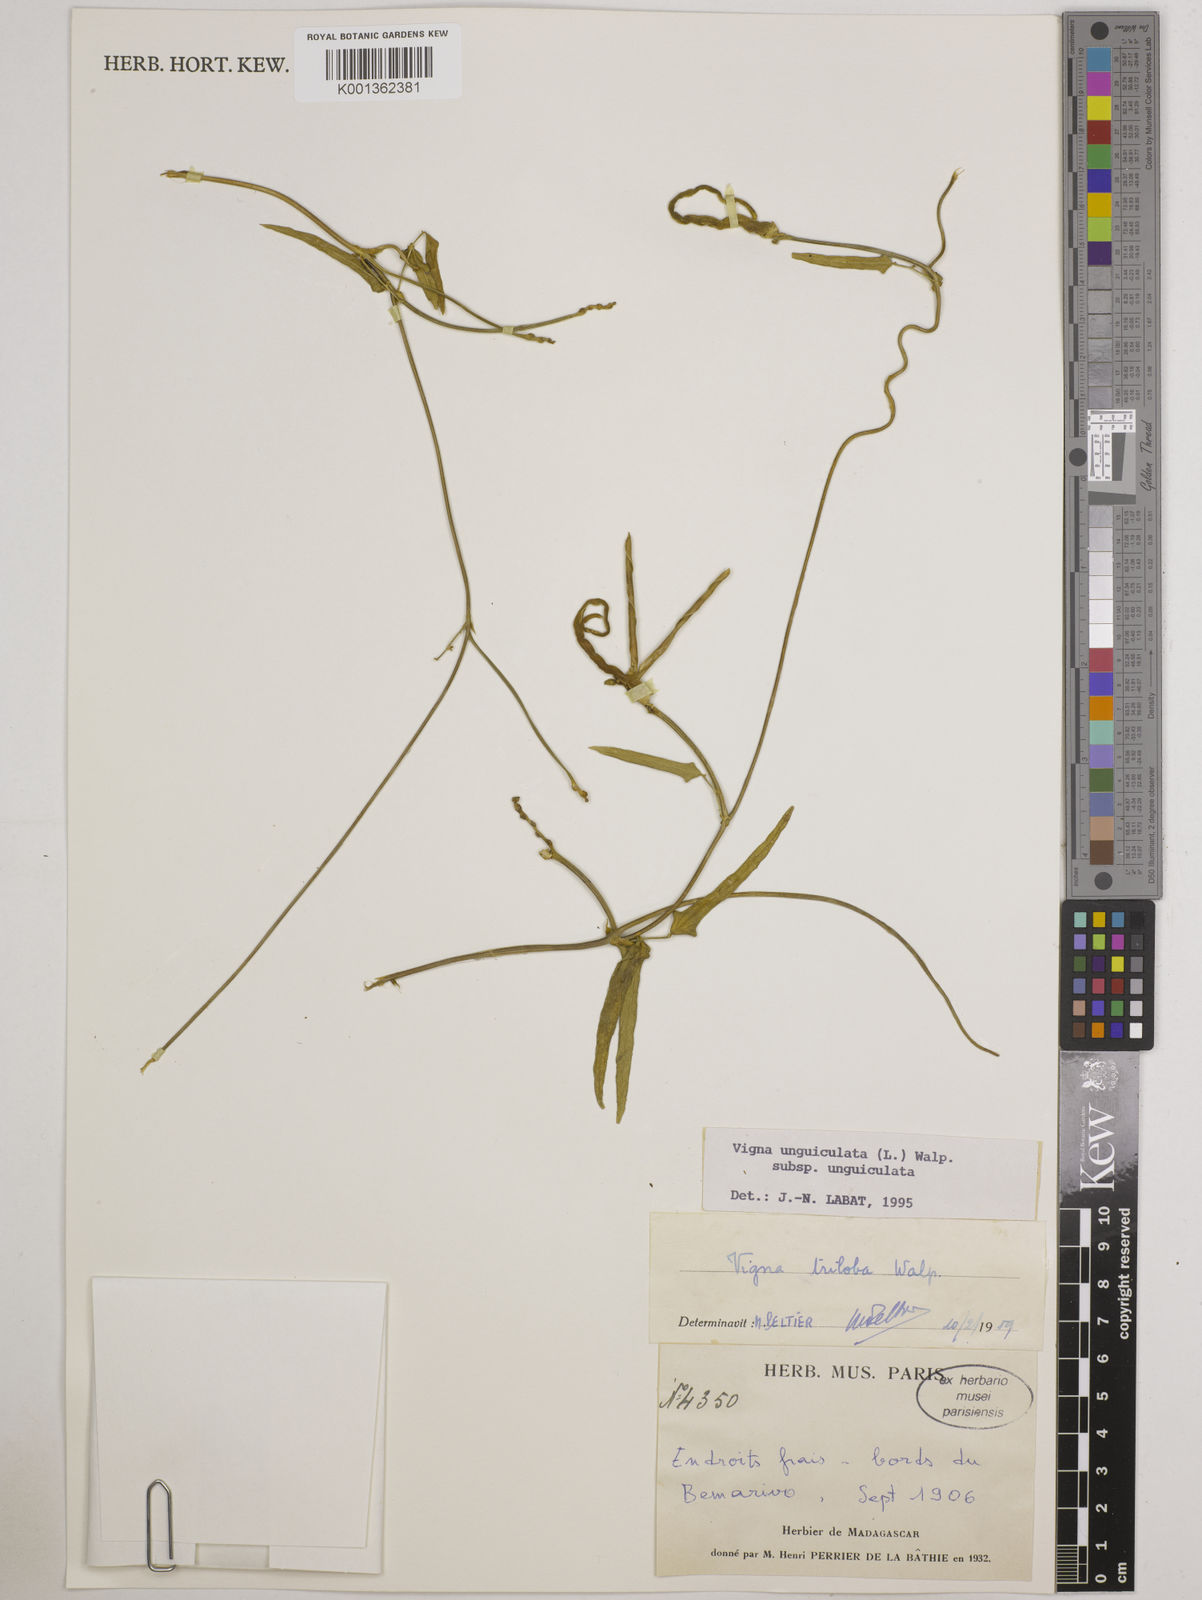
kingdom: Plantae
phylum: Tracheophyta
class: Magnoliopsida
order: Fabales
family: Fabaceae
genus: Vigna
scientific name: Vigna
